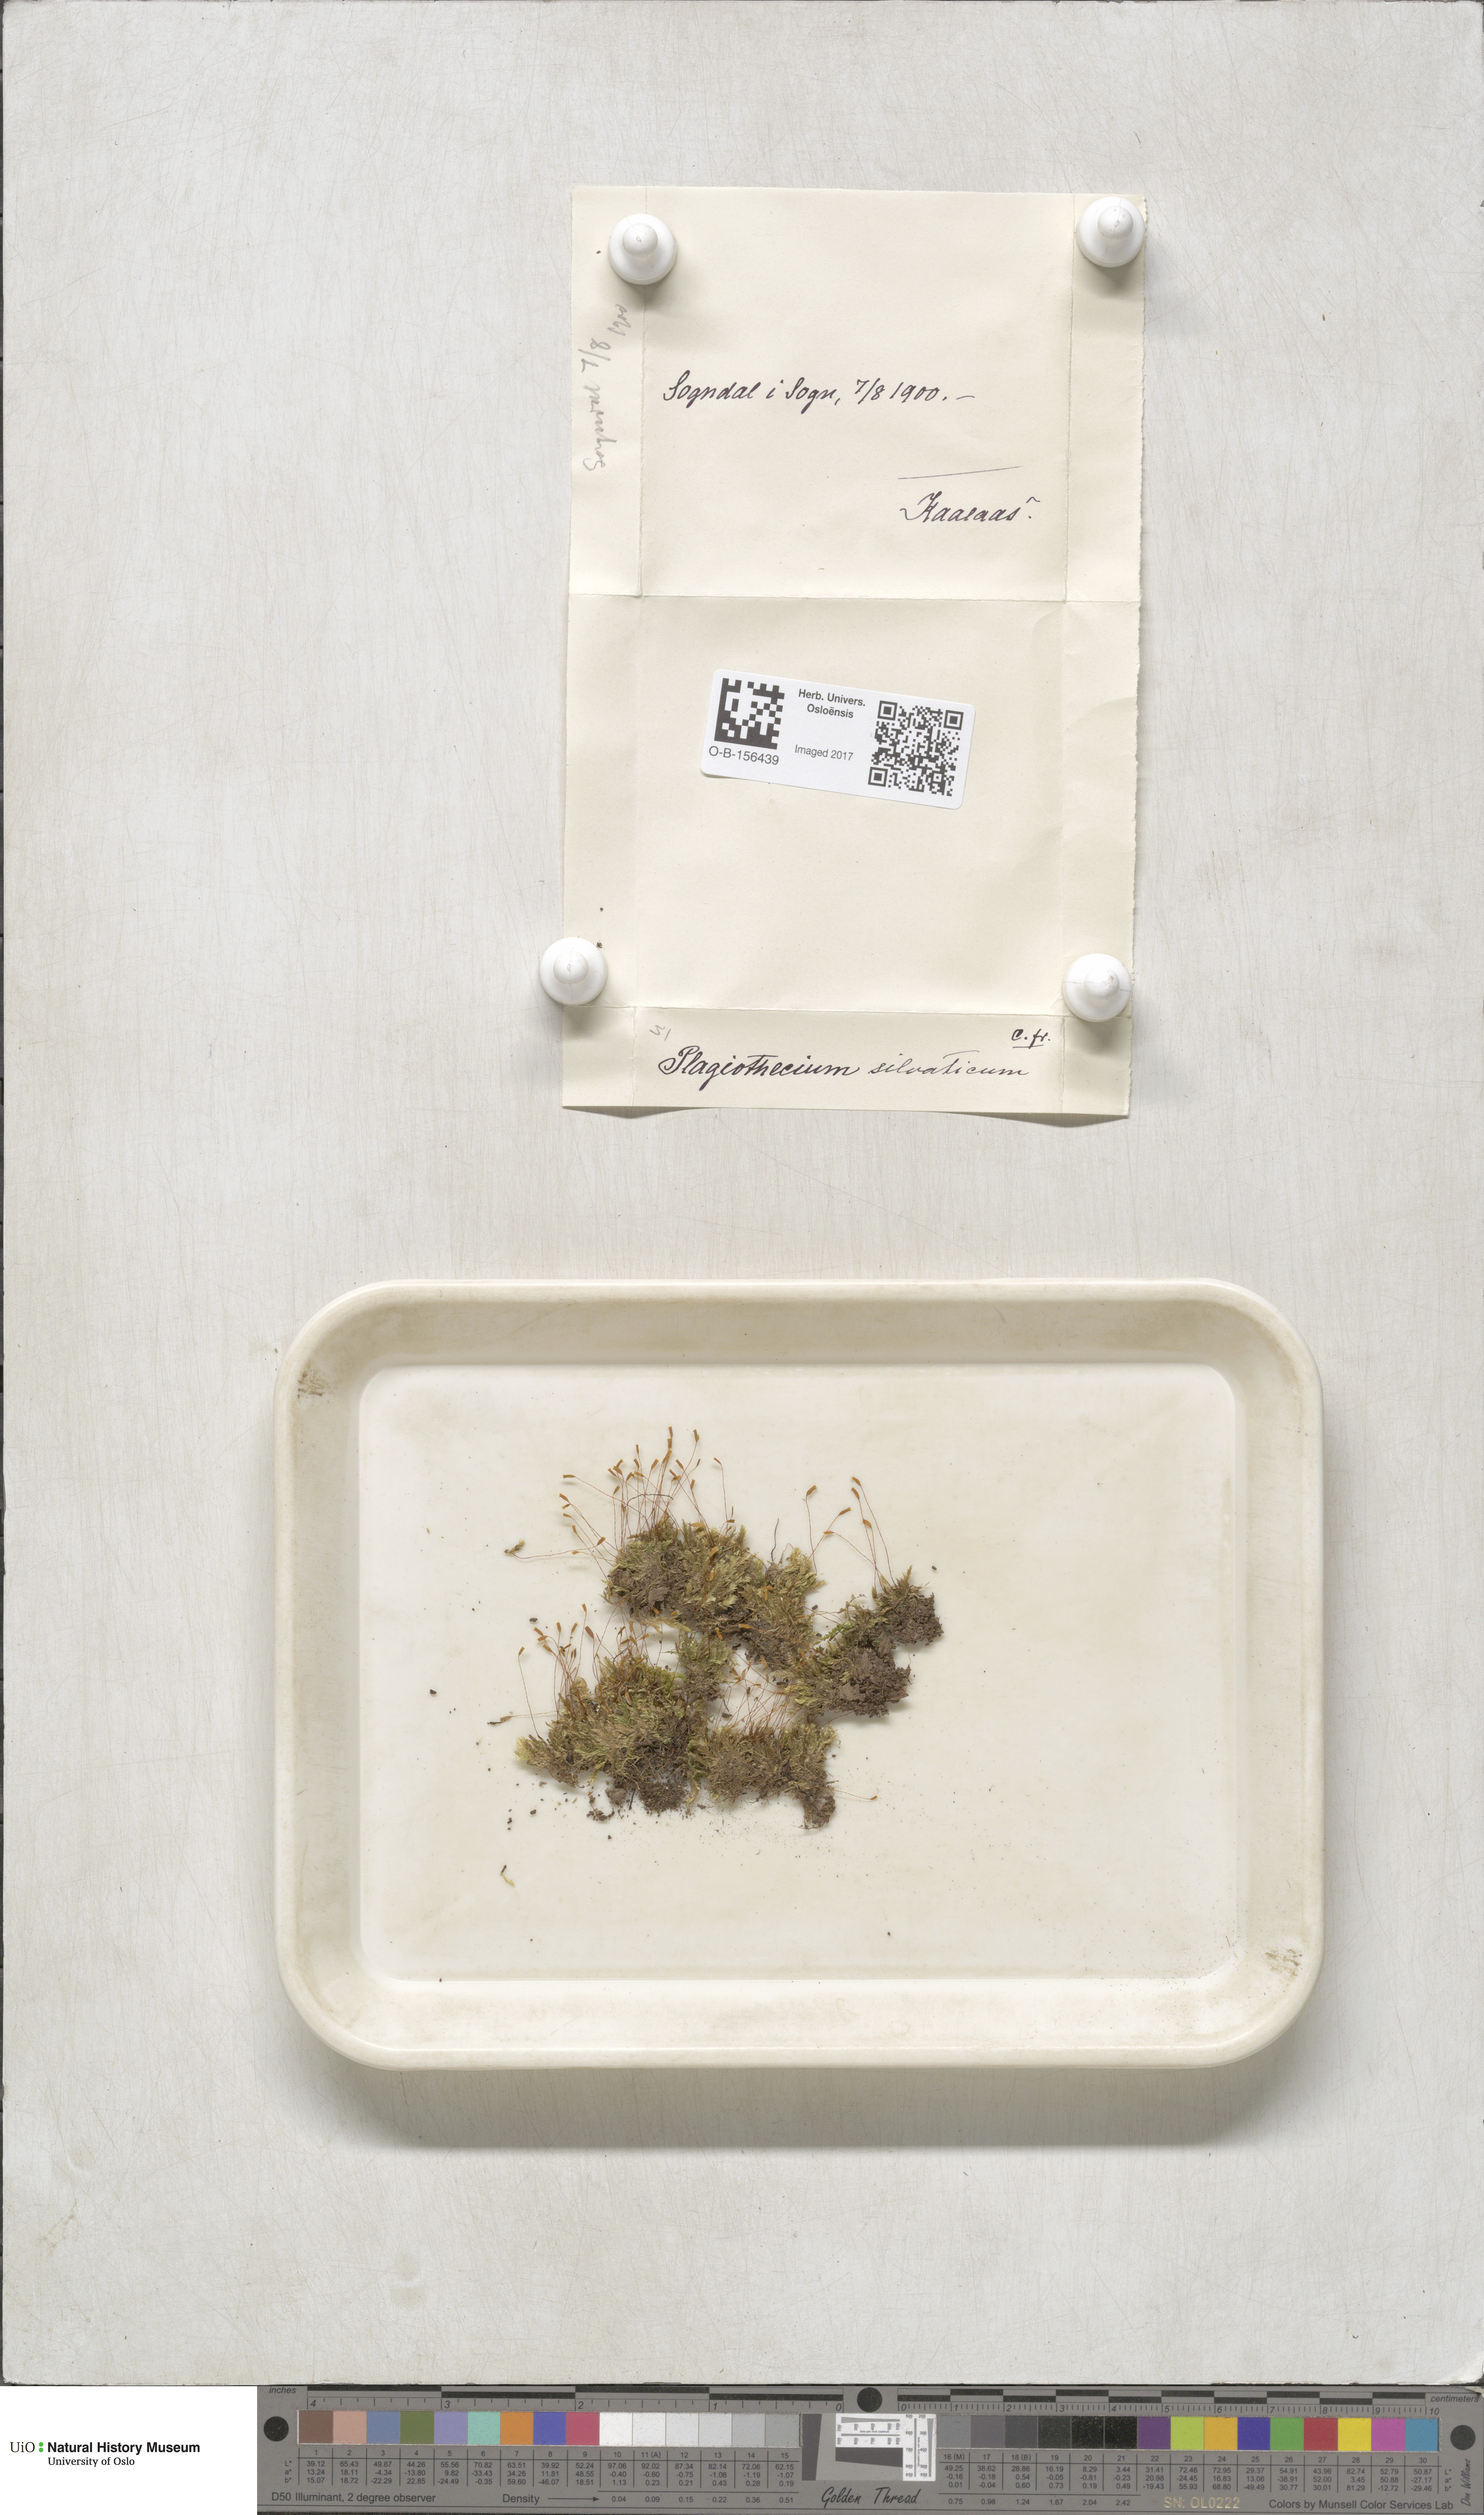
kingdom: Plantae
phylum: Bryophyta
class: Bryopsida
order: Hypnales
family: Plagiotheciaceae
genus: Plagiothecium
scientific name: Plagiothecium nemorale
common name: Woodsy silk-moss
